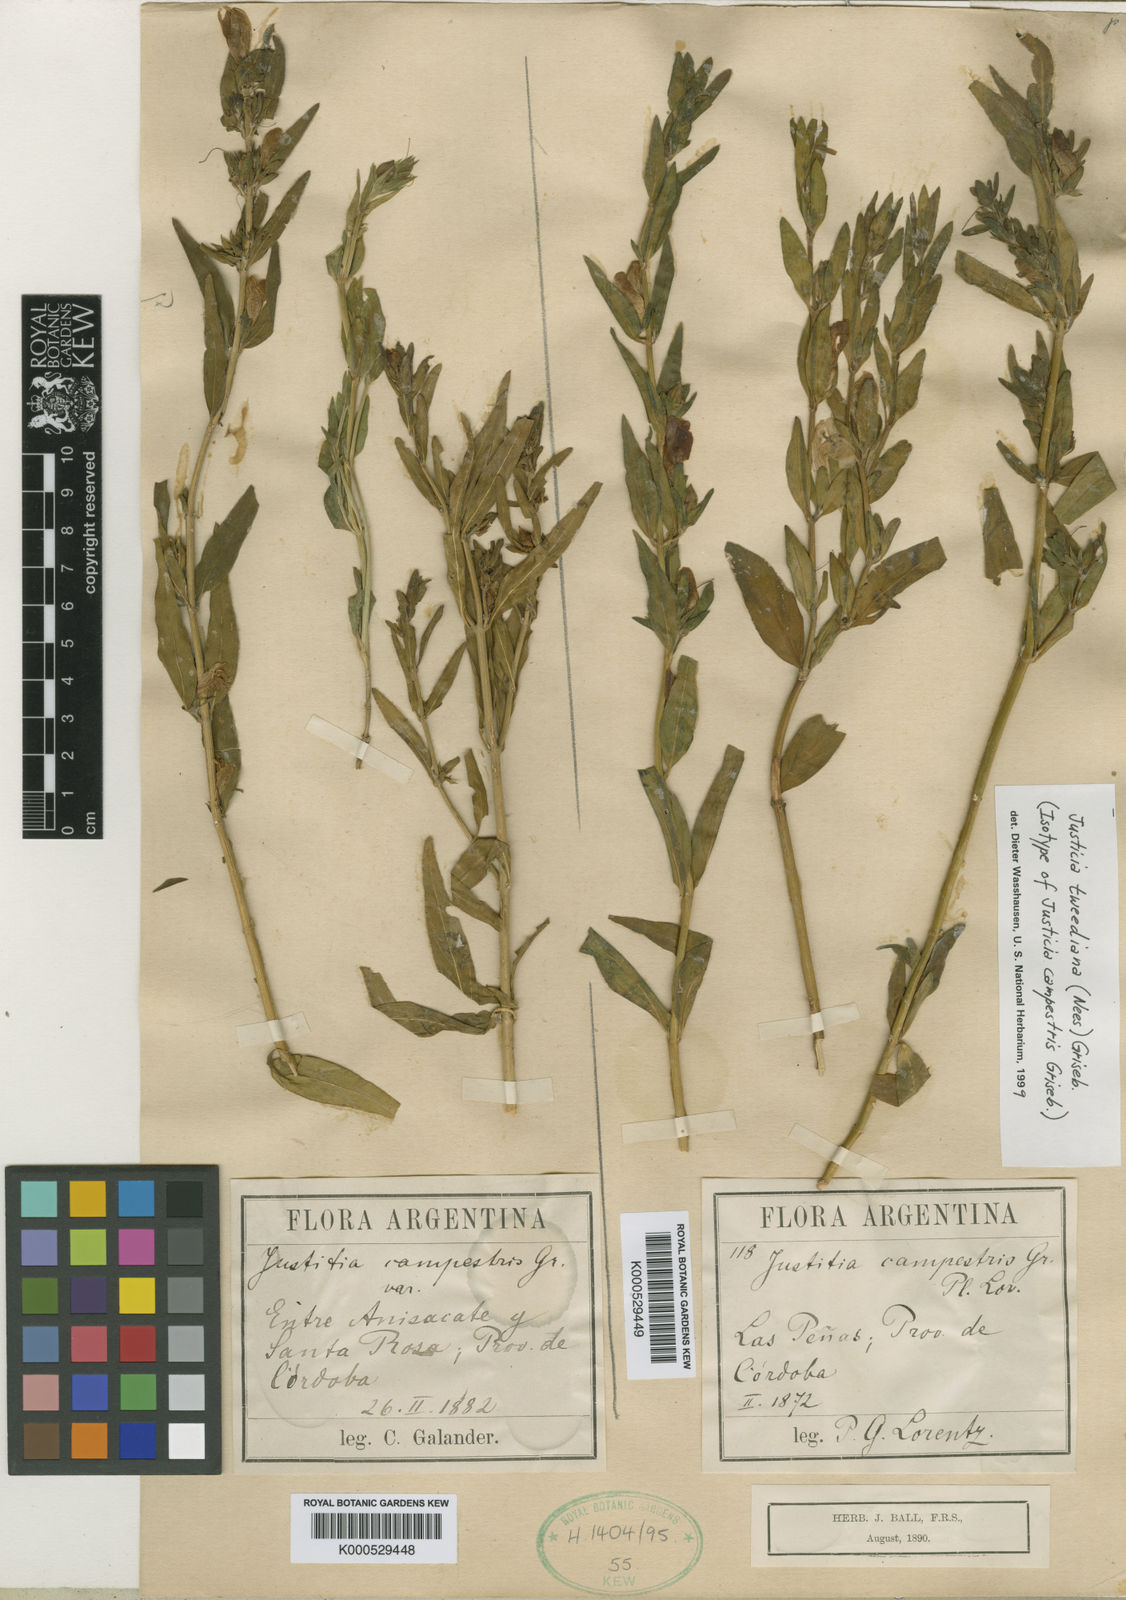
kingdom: Plantae
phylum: Tracheophyta
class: Magnoliopsida
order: Lamiales
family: Acanthaceae
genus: Justicia
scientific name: Justicia
